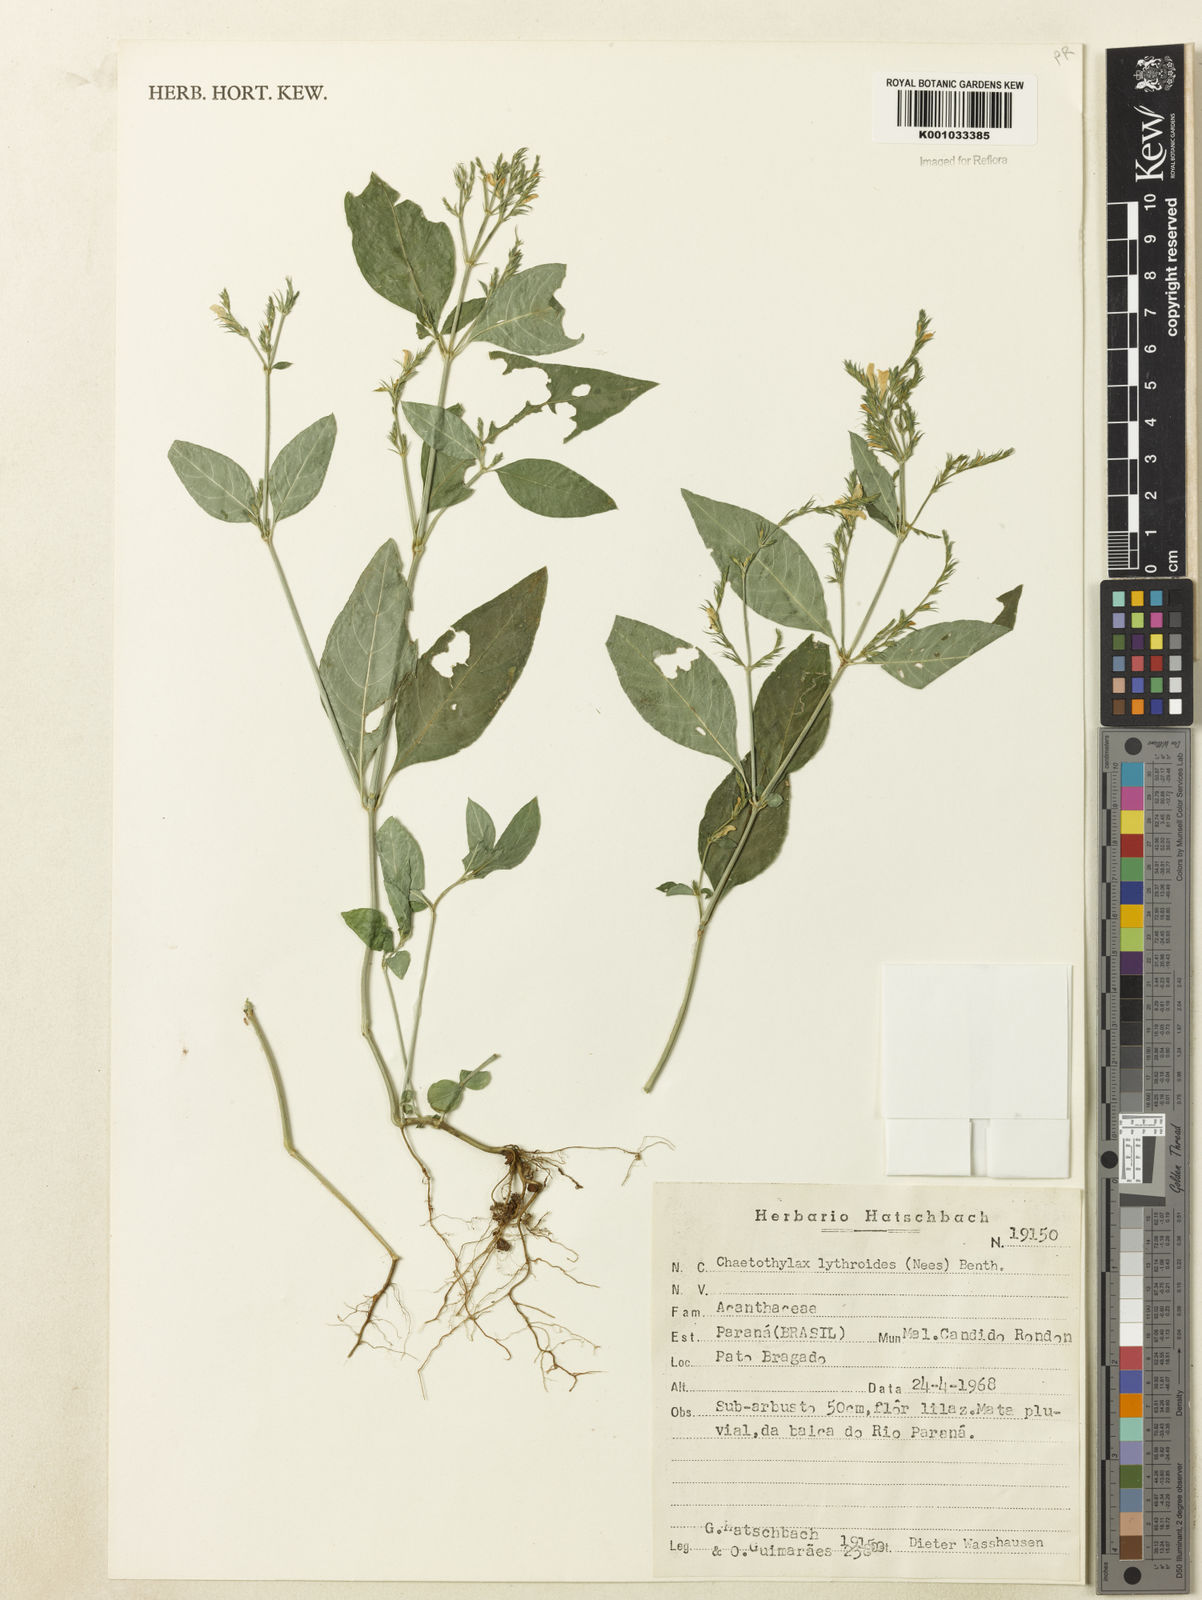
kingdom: Plantae
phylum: Tracheophyta
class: Magnoliopsida
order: Lamiales
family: Acanthaceae
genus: Justicia
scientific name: Justicia lythroides
